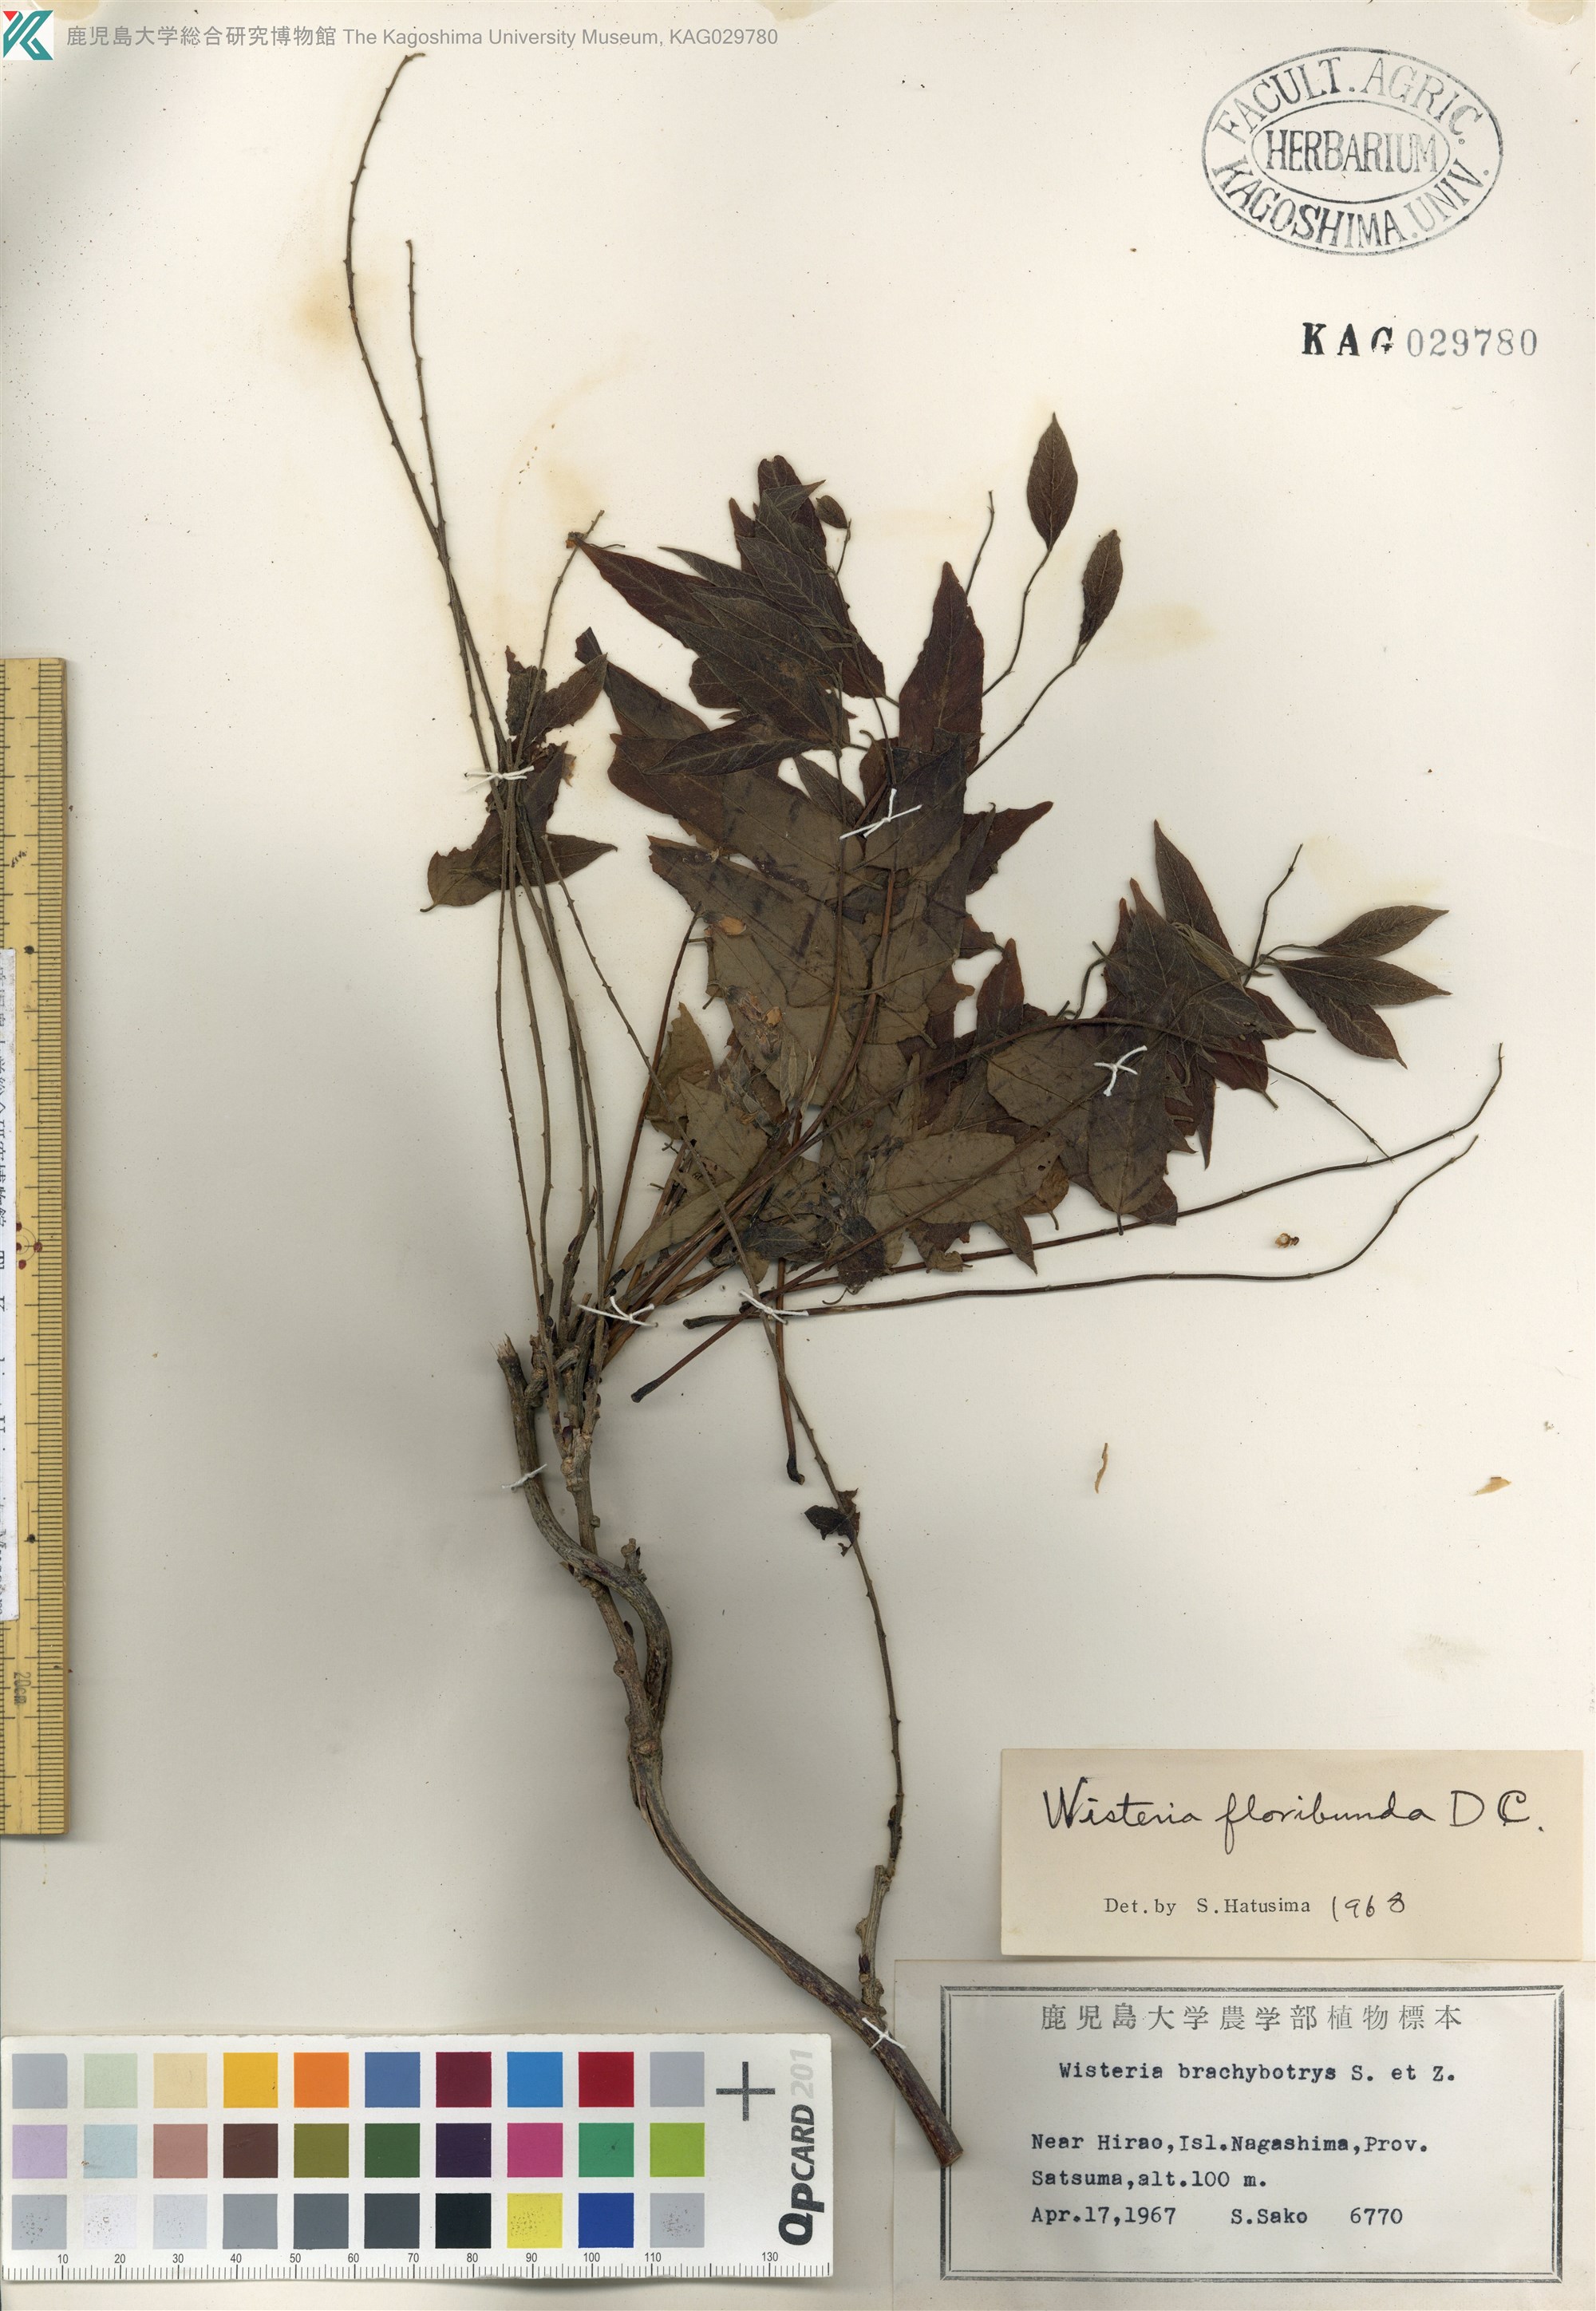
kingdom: Plantae
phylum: Tracheophyta
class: Magnoliopsida
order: Fabales
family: Fabaceae
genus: Wisteria
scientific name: Wisteria brachybotrys
